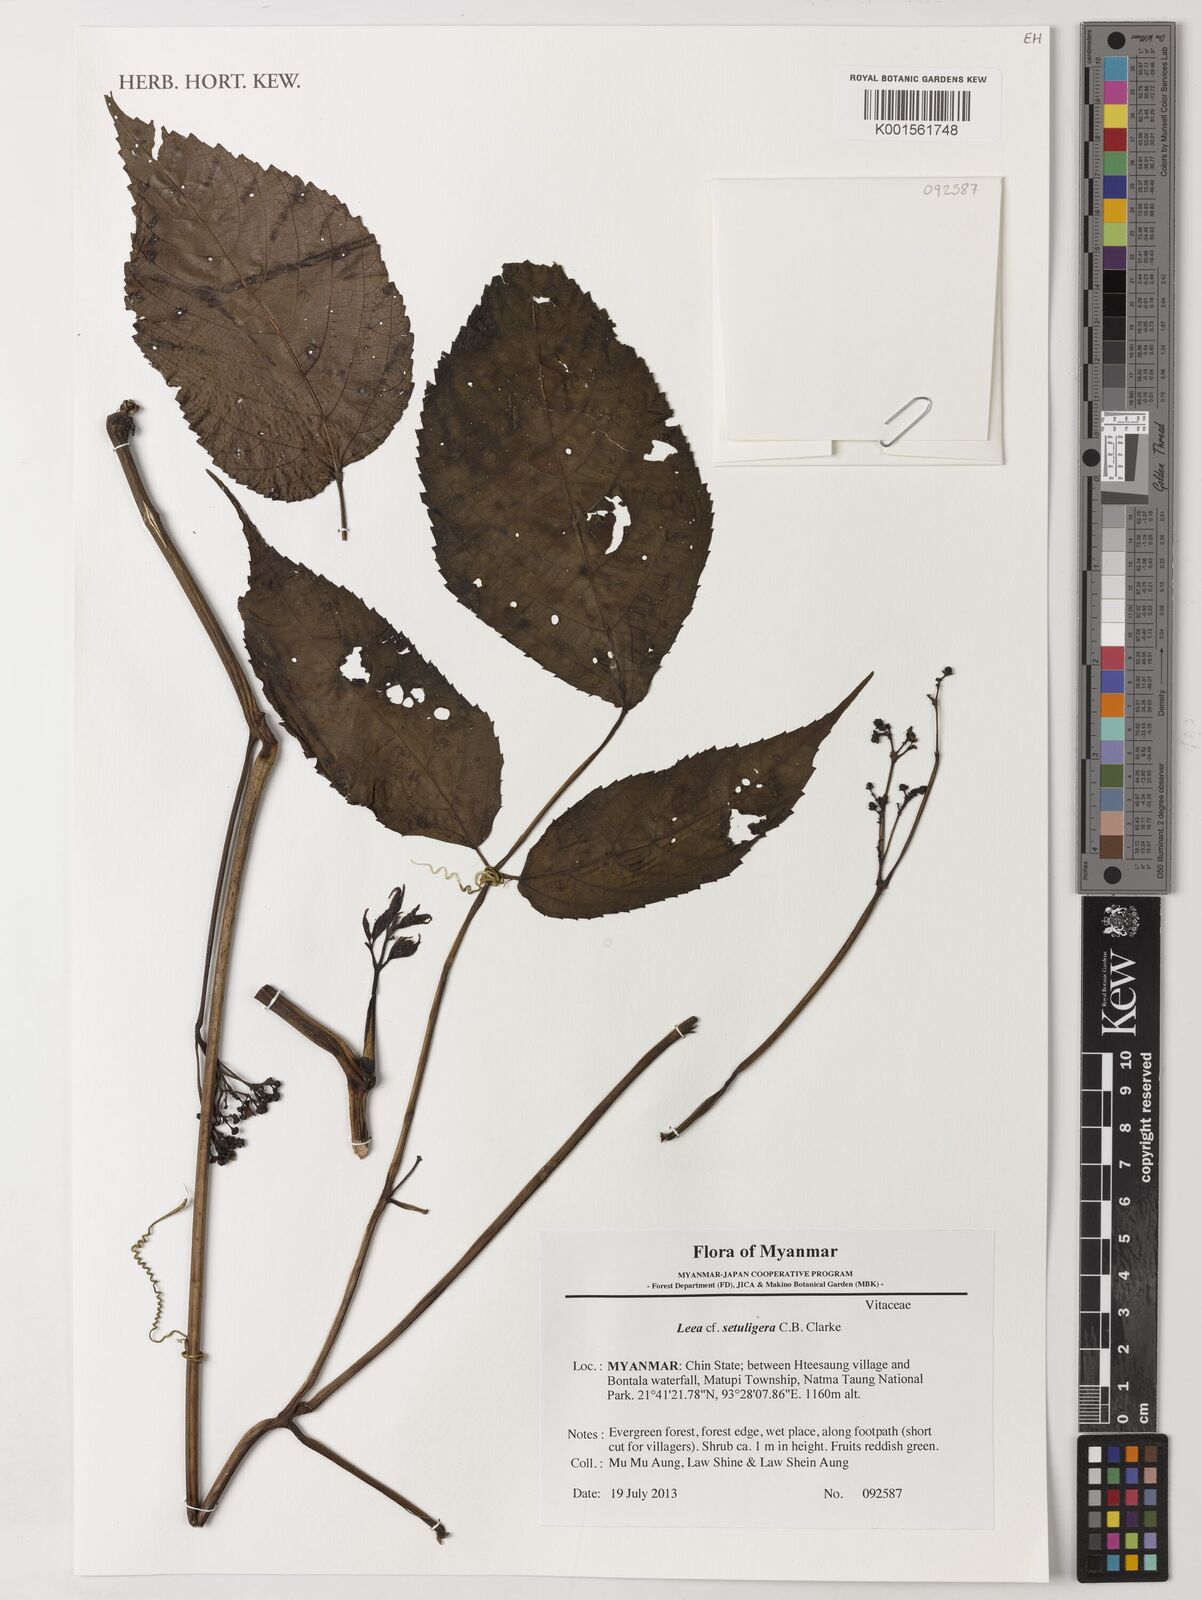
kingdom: Plantae
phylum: Tracheophyta
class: Magnoliopsida
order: Vitales
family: Vitaceae
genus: Leea
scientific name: Leea setuligera
